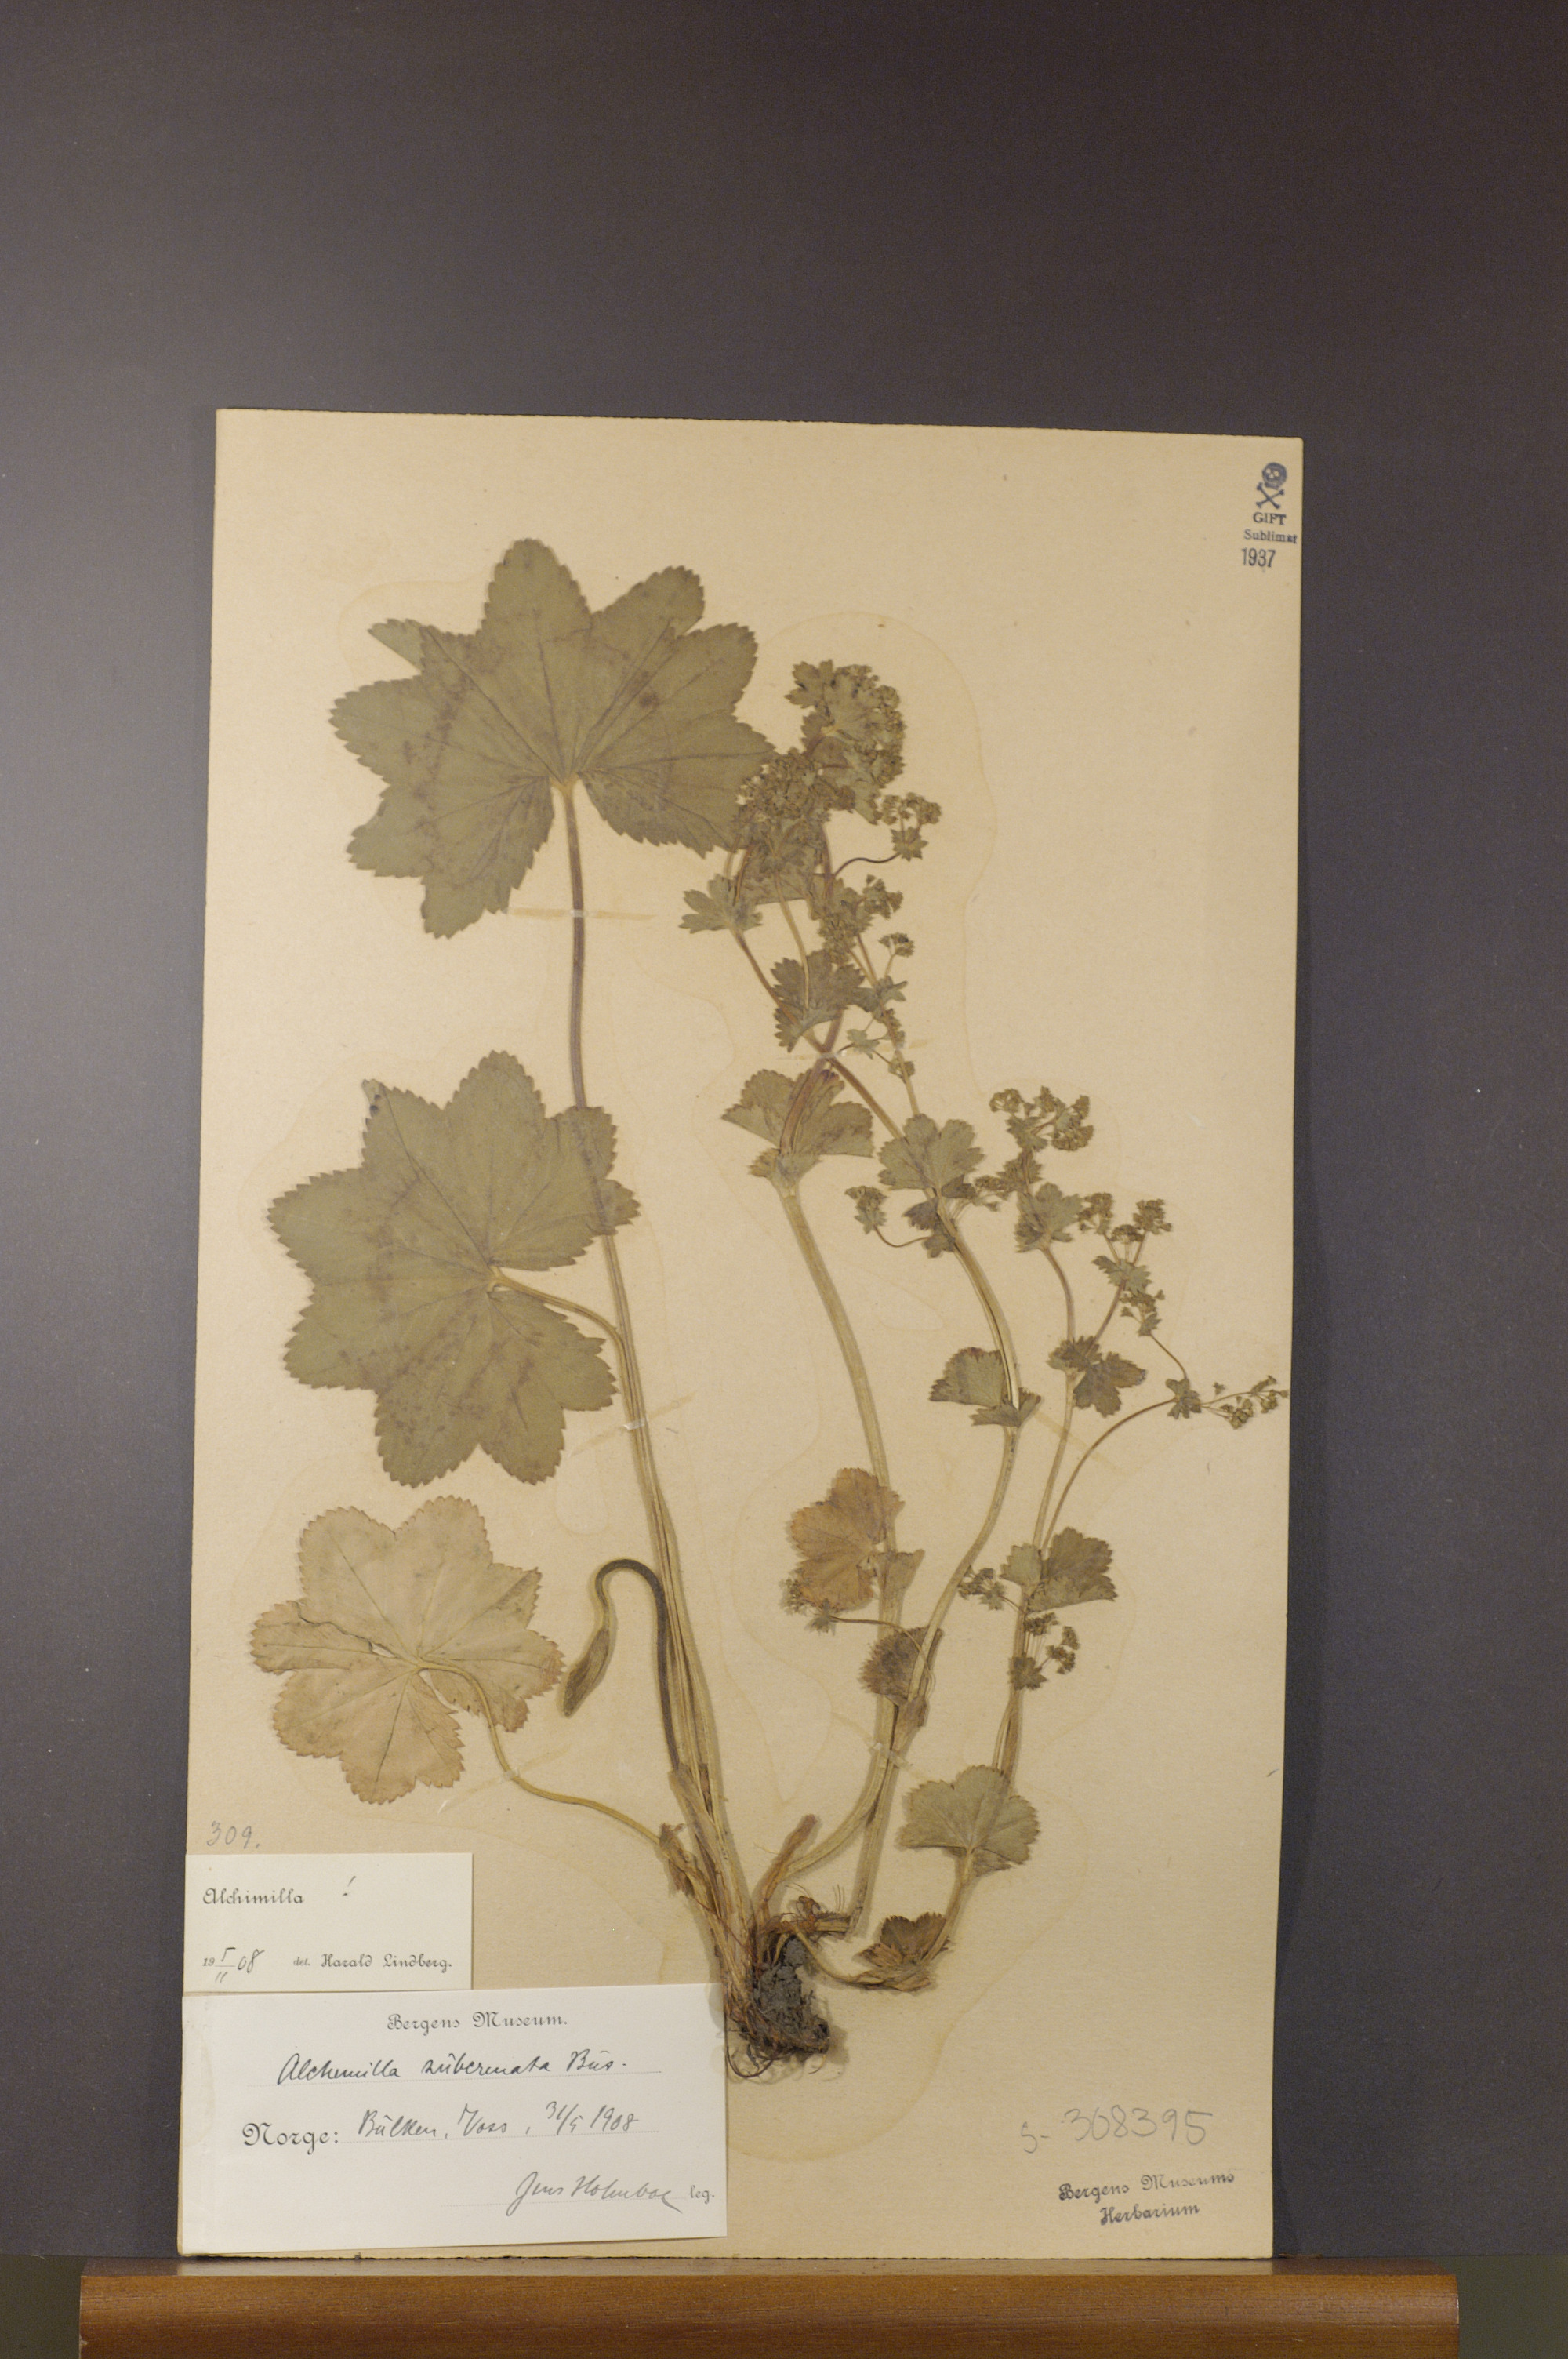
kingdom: Plantae
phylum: Tracheophyta
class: Magnoliopsida
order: Rosales
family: Rosaceae
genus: Alchemilla
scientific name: Alchemilla subcrenata
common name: Broadtooth lady's mantle
